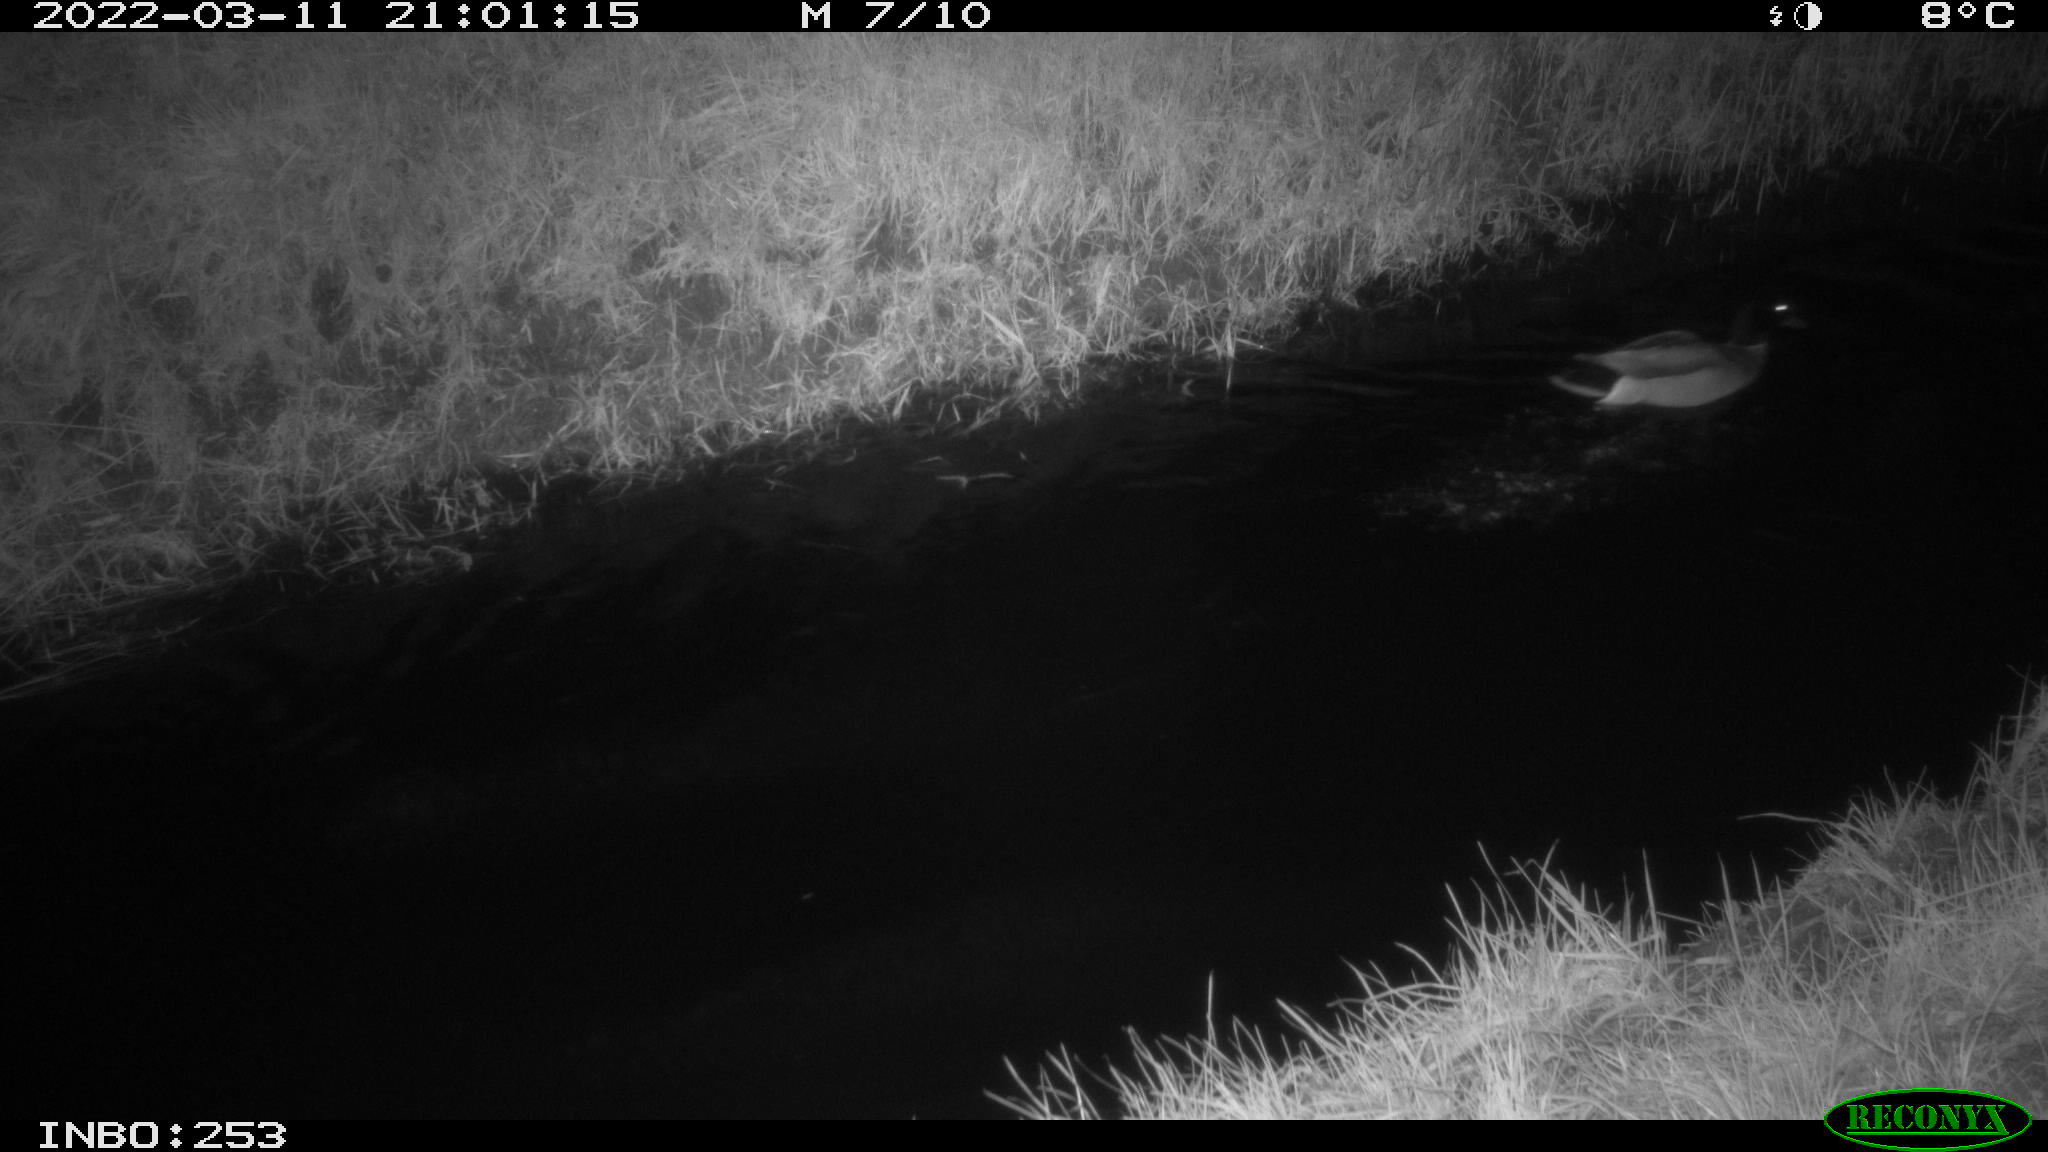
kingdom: Animalia
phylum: Chordata
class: Aves
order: Anseriformes
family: Anatidae
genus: Anas
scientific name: Anas platyrhynchos
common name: Mallard
